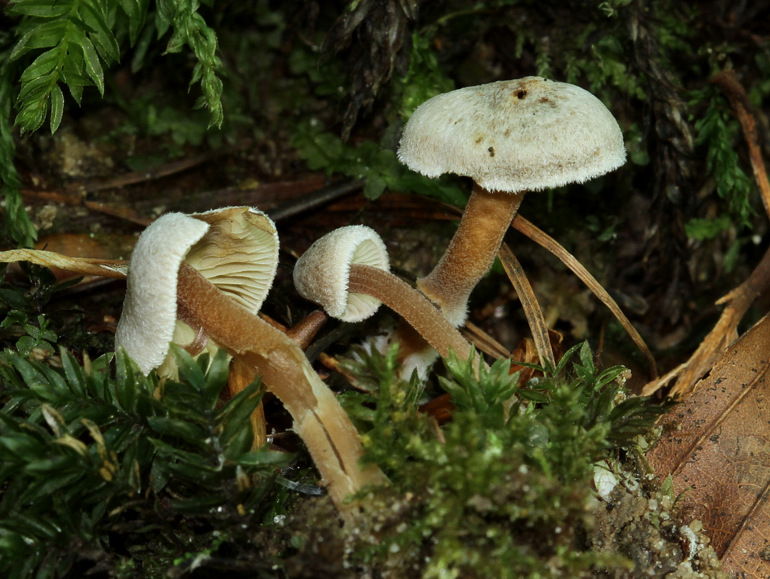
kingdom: Fungi
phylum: Basidiomycota
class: Agaricomycetes
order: Agaricales
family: Inocybaceae
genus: Inocybe
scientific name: Inocybe petiginosa
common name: liden trævlhat
